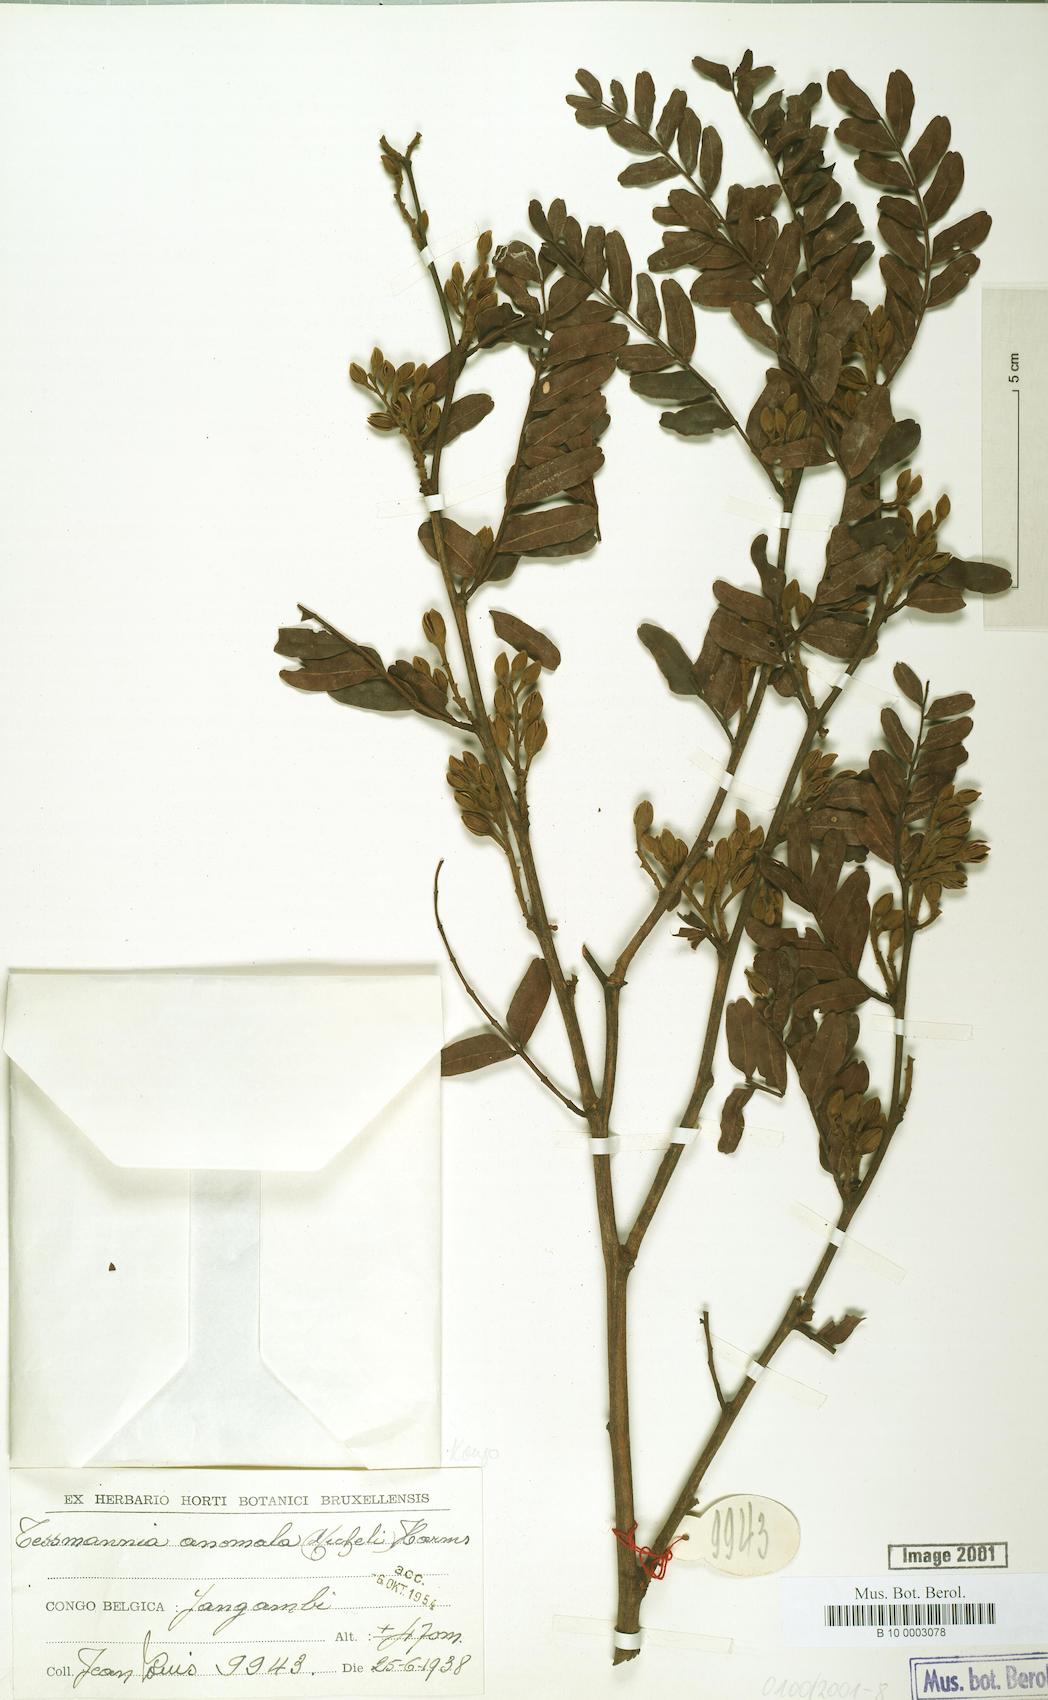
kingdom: Plantae
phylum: Tracheophyta
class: Magnoliopsida
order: Fabales
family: Fabaceae
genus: Tessmannia
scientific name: Tessmannia anomala
